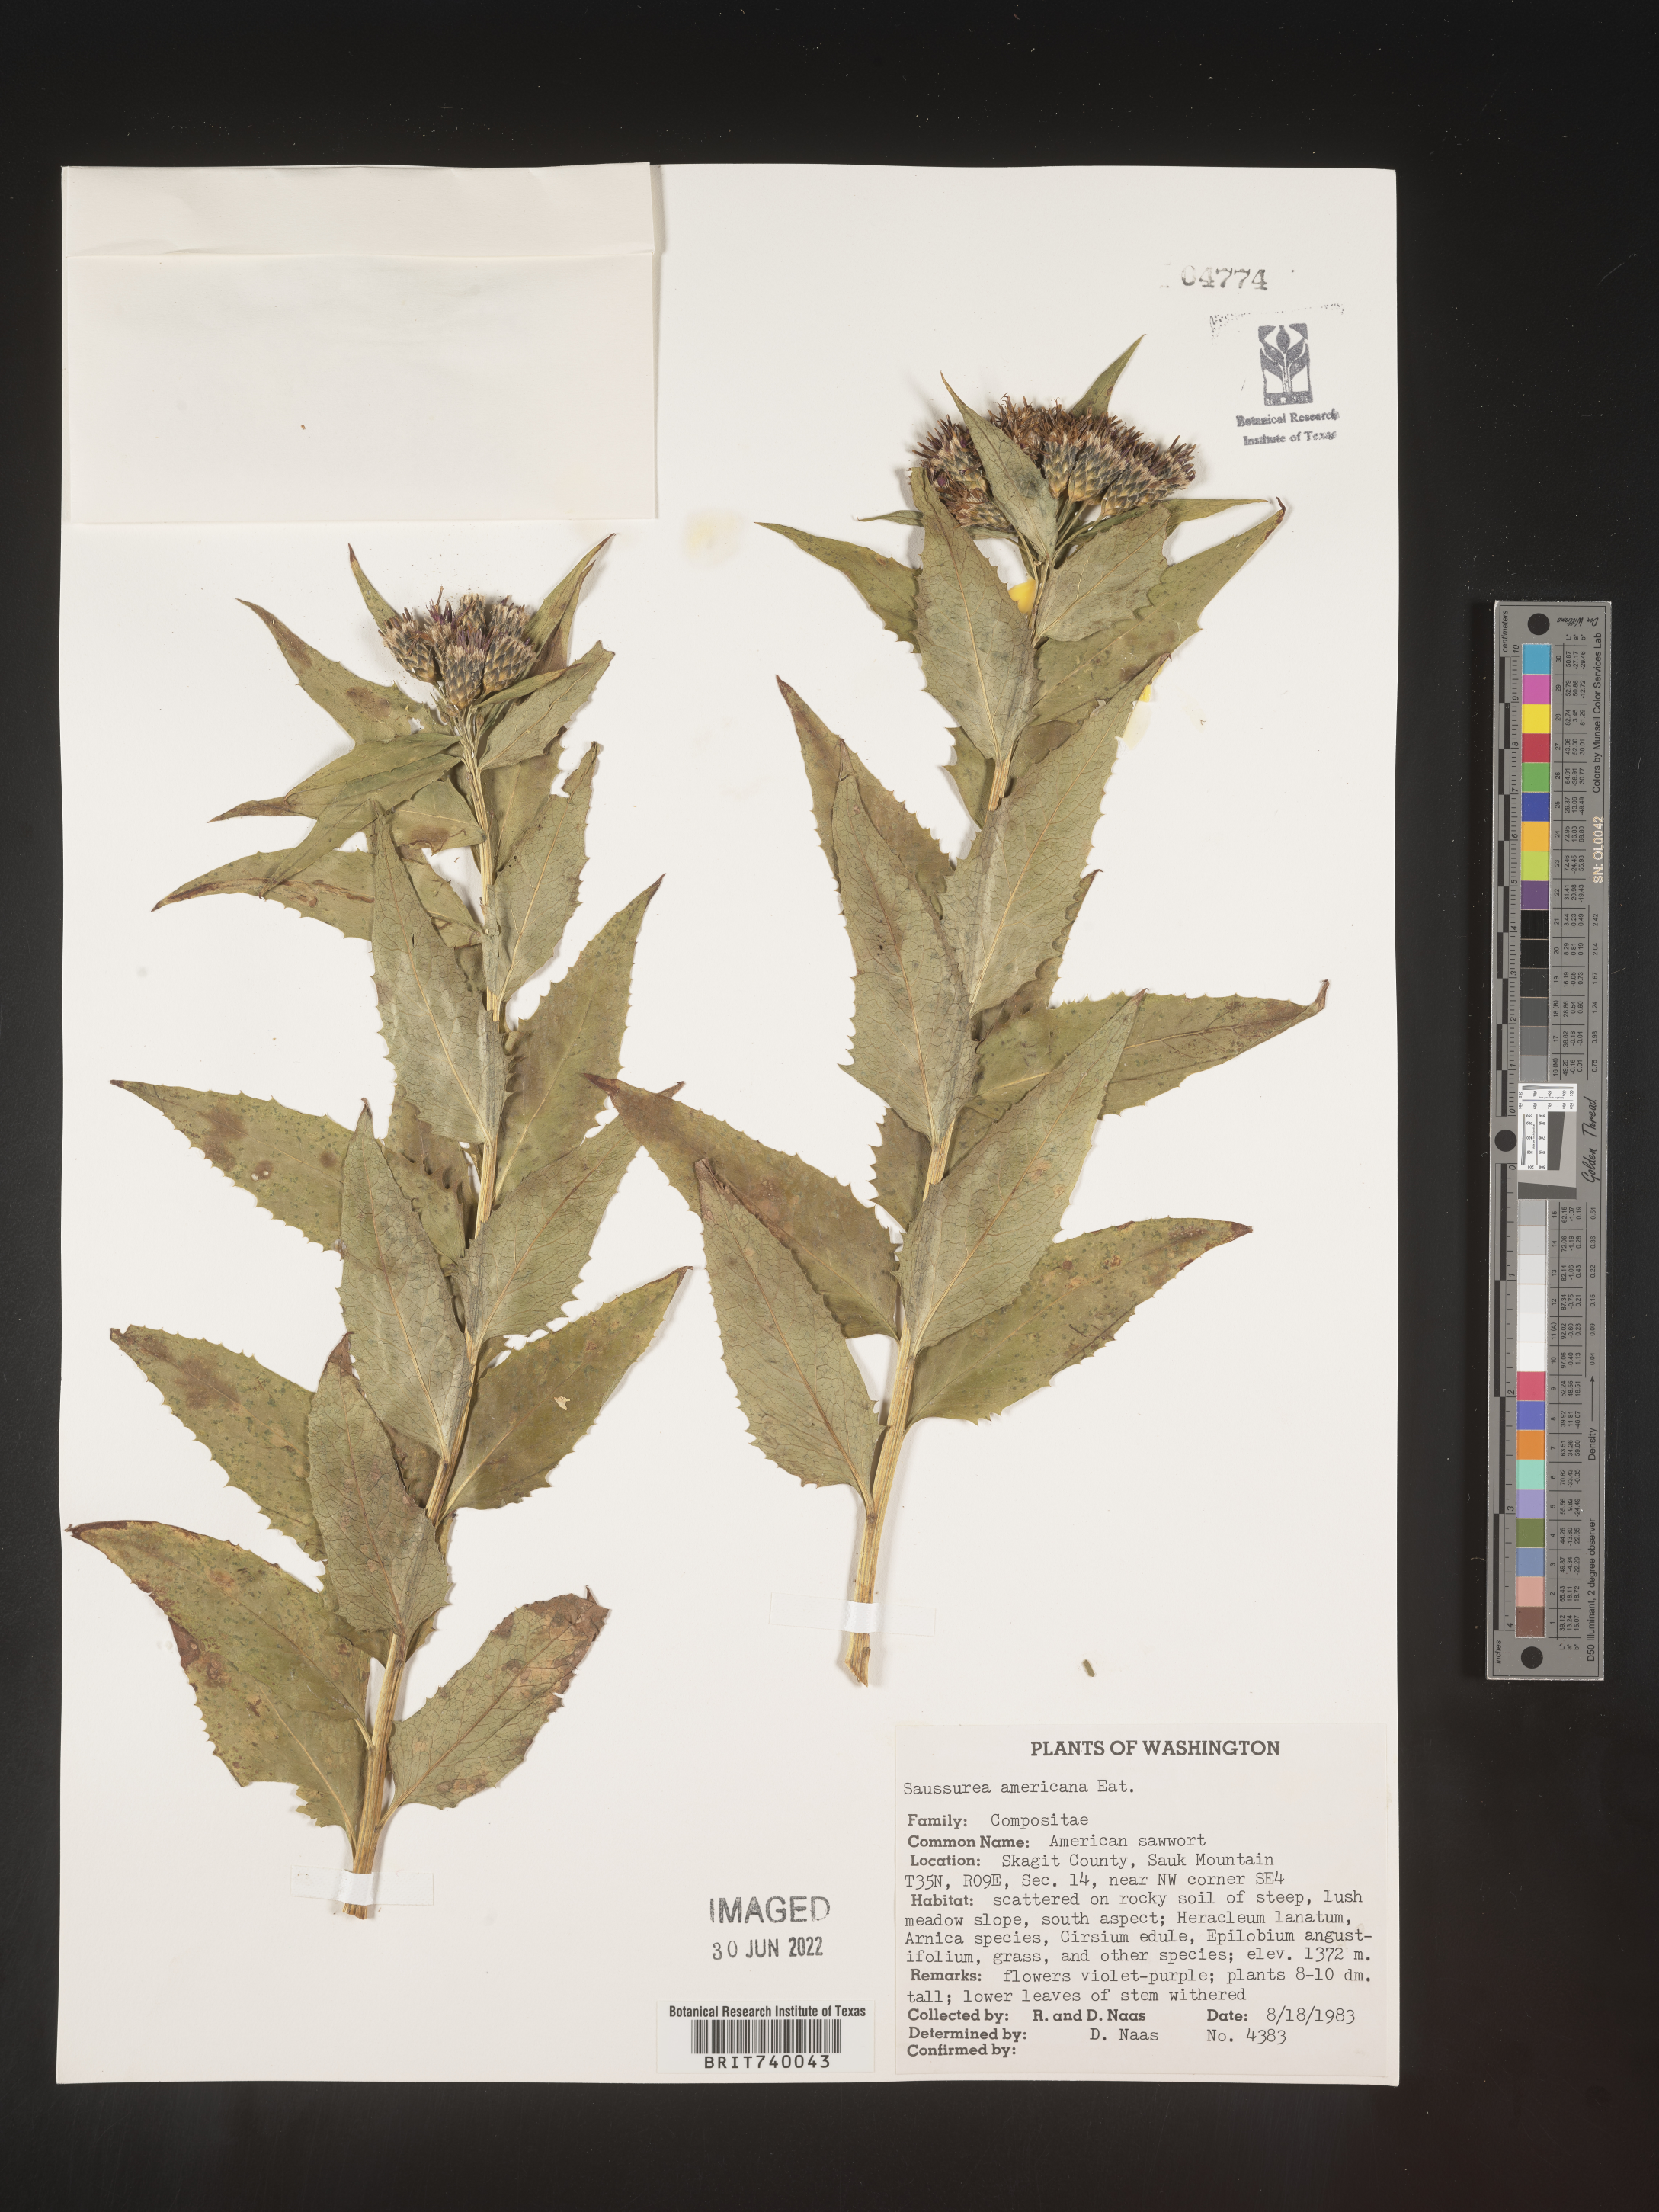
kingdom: Plantae
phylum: Tracheophyta
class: Magnoliopsida
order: Asterales
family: Asteraceae
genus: Saussurea
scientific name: Saussurea
